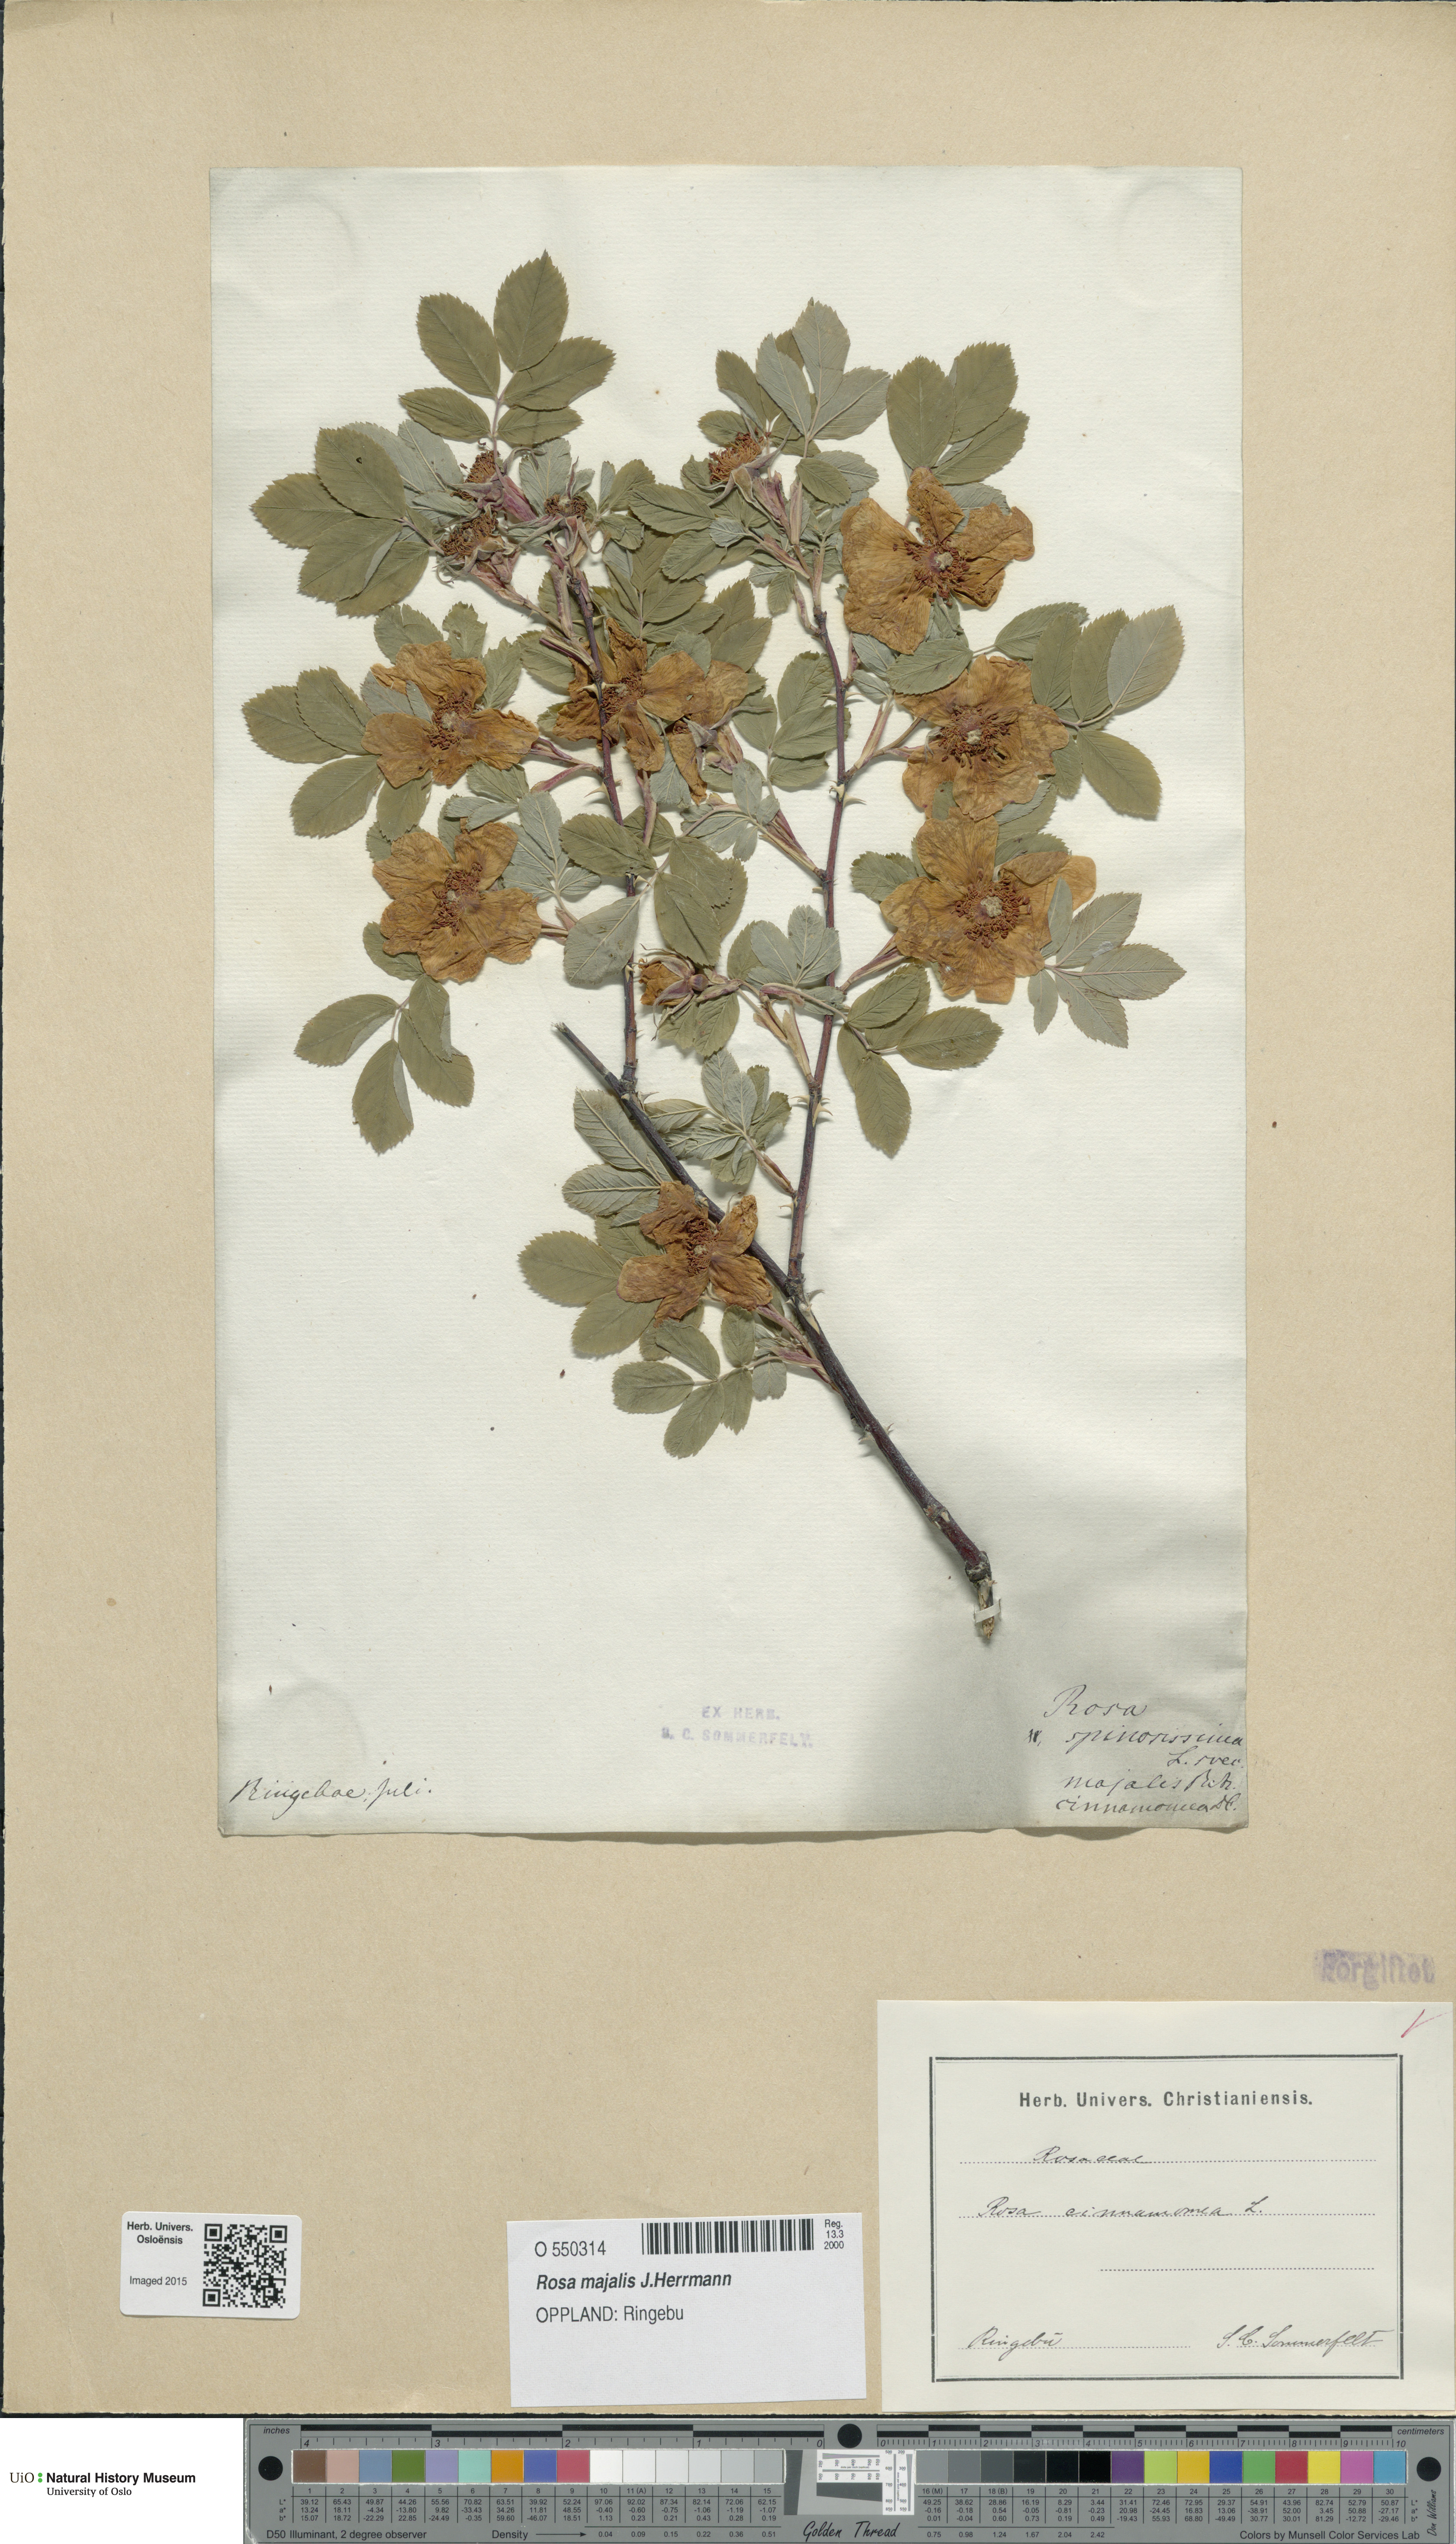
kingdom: Plantae
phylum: Tracheophyta
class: Magnoliopsida
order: Rosales
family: Rosaceae
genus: Rosa
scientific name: Rosa majalis
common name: Cinnamon rose
